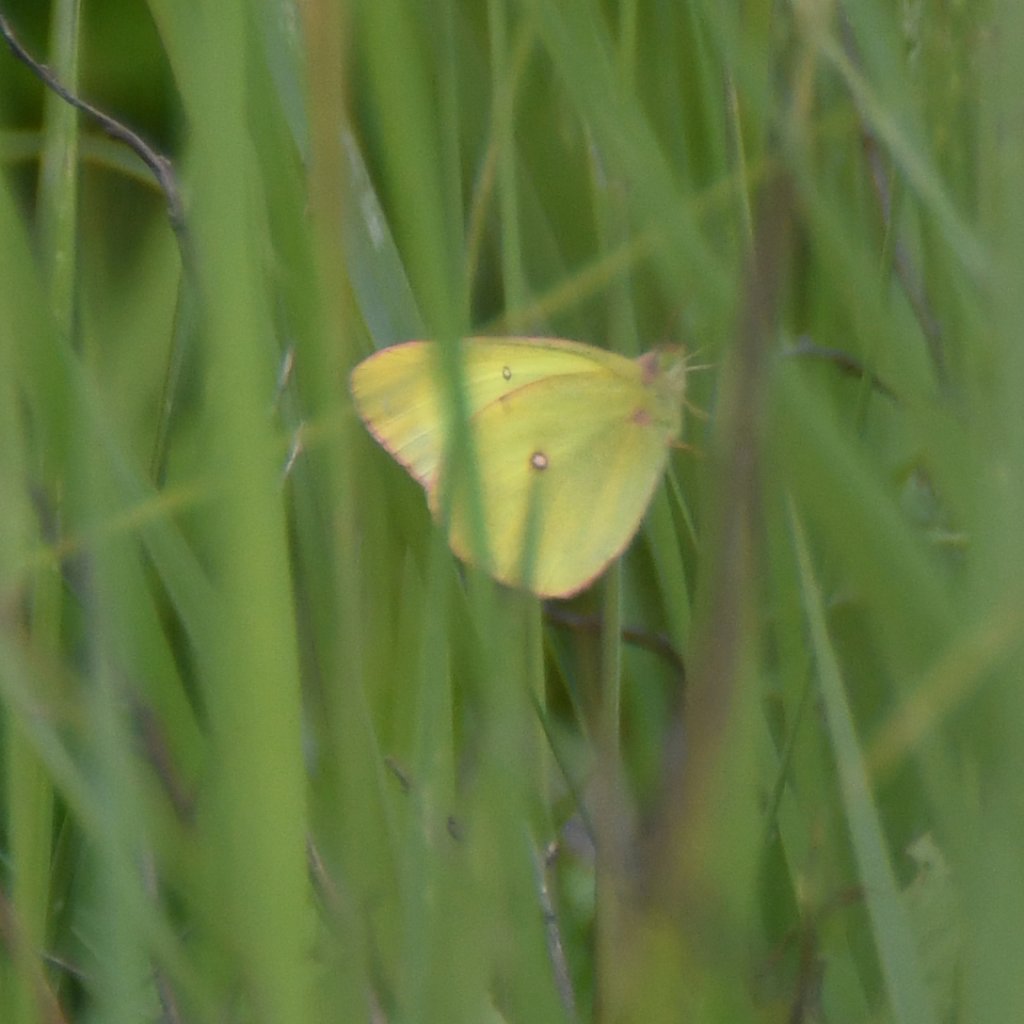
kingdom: Animalia
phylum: Arthropoda
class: Insecta
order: Lepidoptera
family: Pieridae
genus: Colias
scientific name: Colias interior
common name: Pink-edged Sulphur
